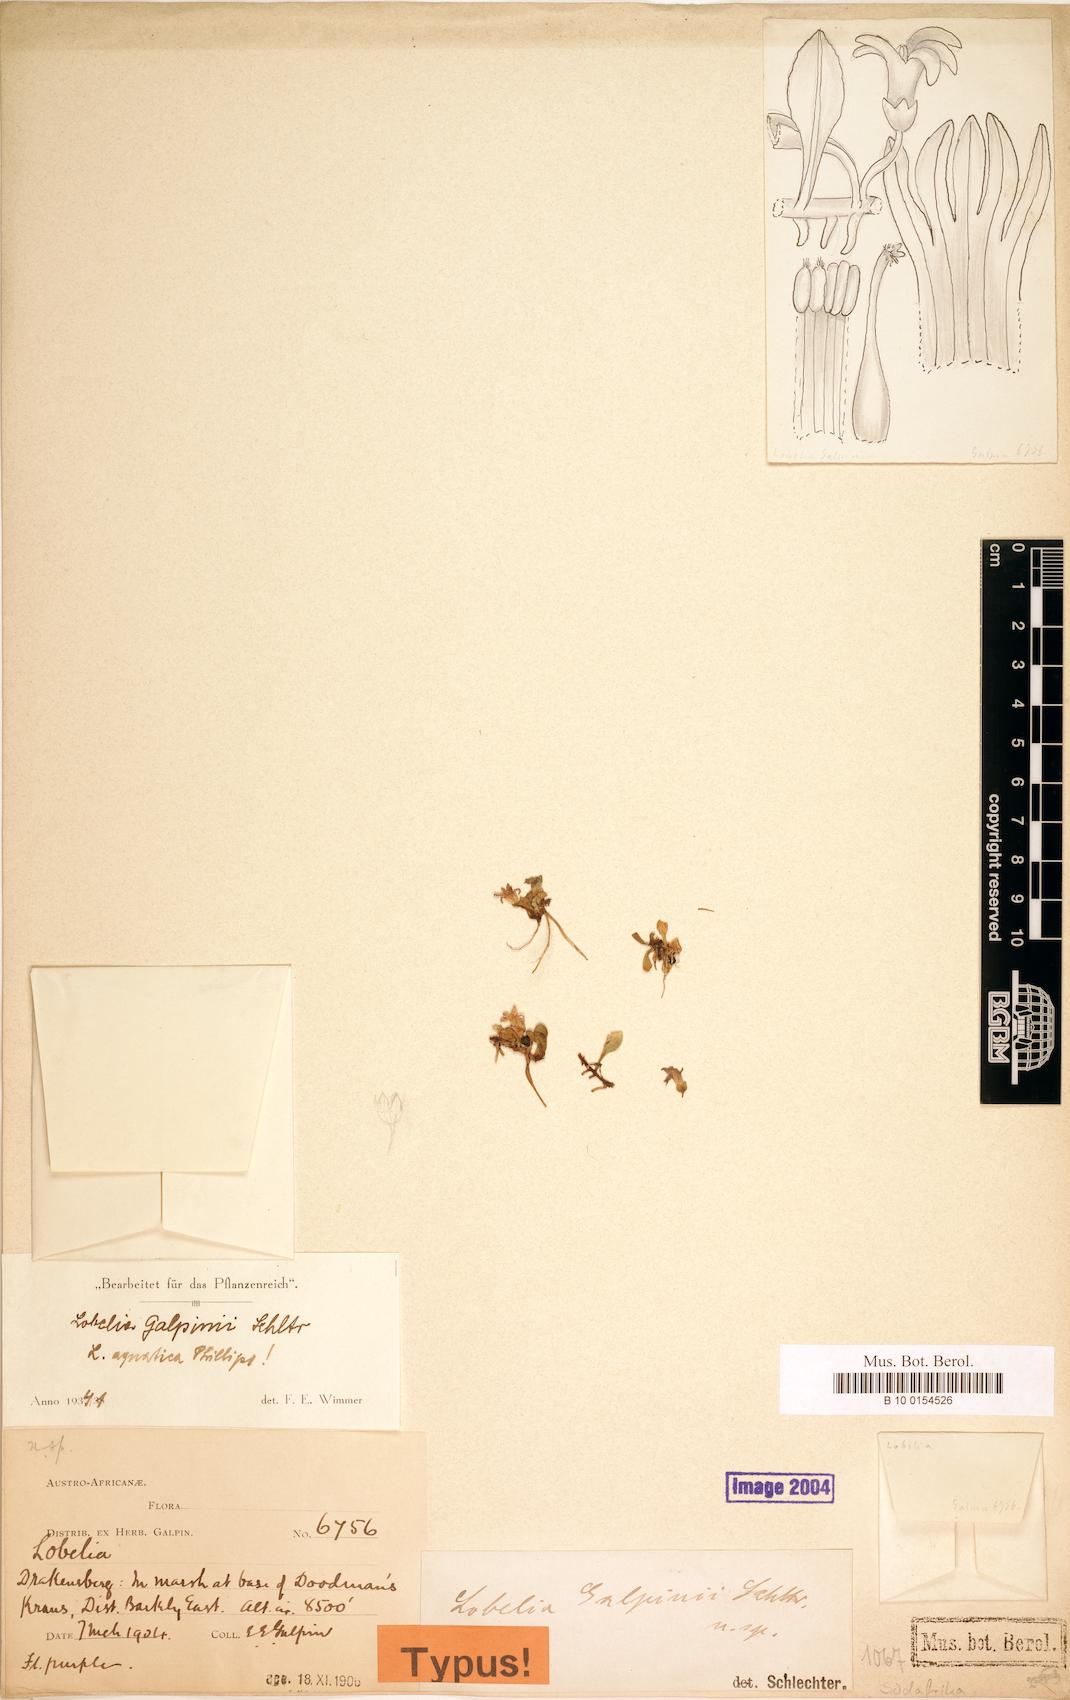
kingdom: Plantae
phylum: Tracheophyta
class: Magnoliopsida
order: Asterales
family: Campanulaceae
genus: Lobelia
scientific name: Lobelia galpinii
